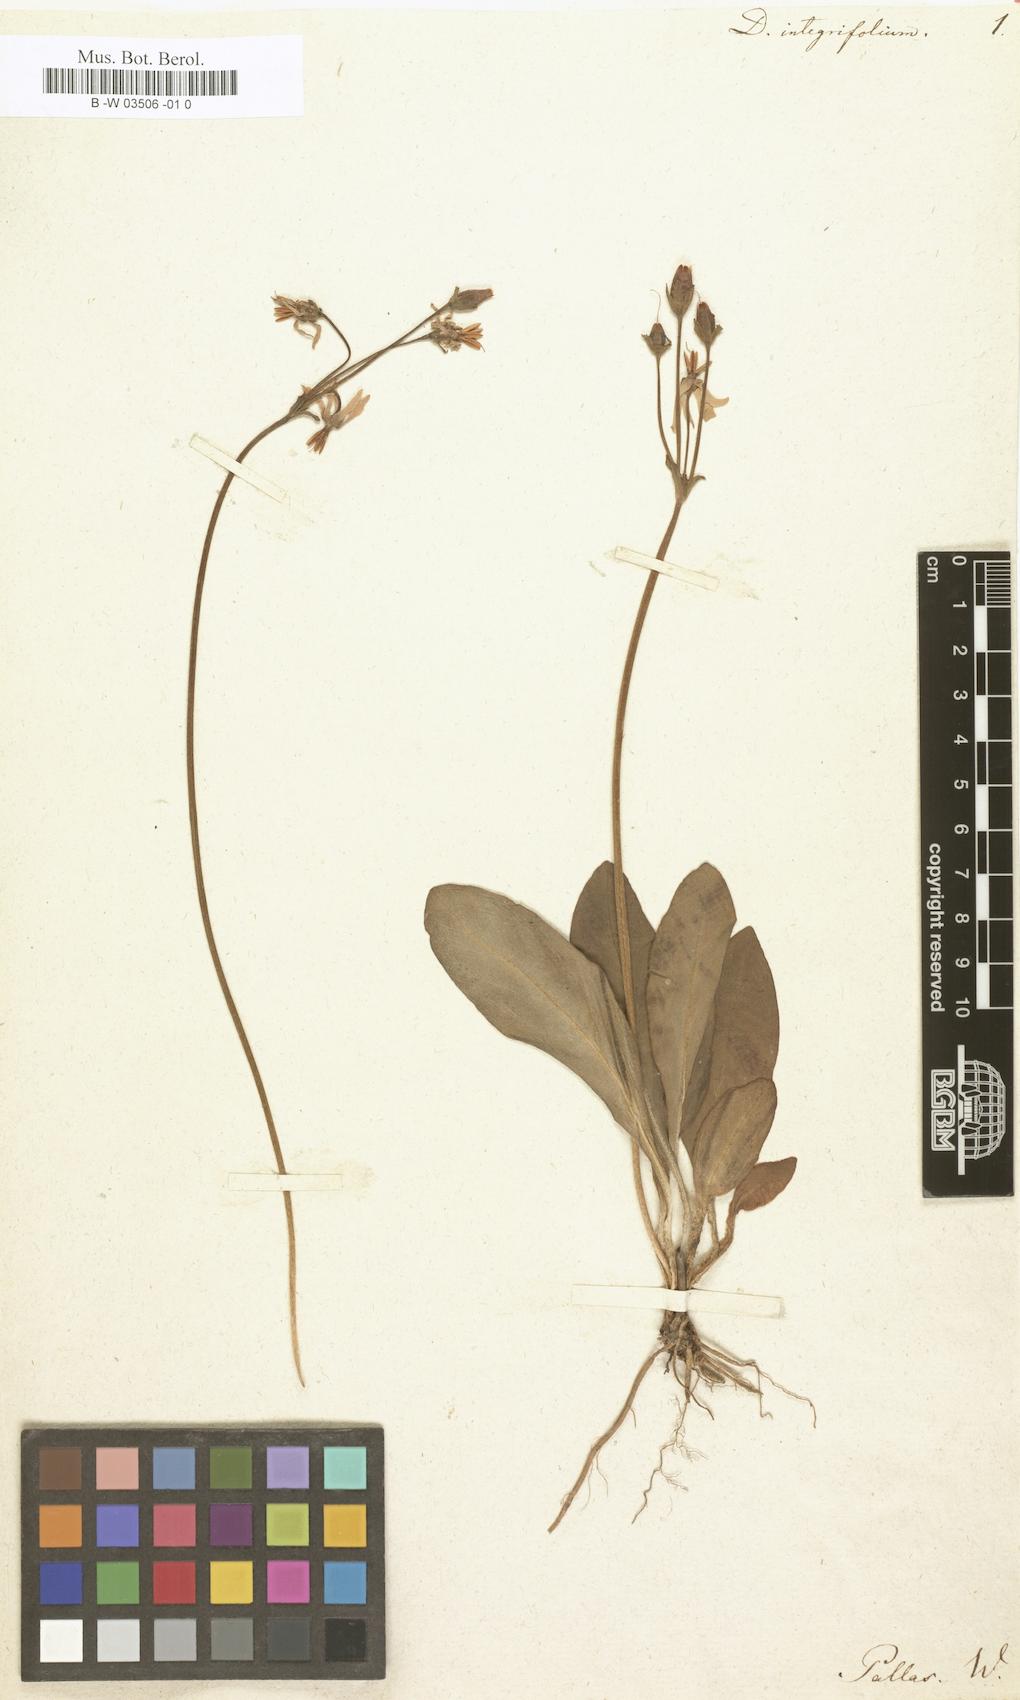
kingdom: Plantae
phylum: Tracheophyta
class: Magnoliopsida
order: Ericales
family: Primulaceae
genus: Dodecatheon
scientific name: Dodecatheon meadia
